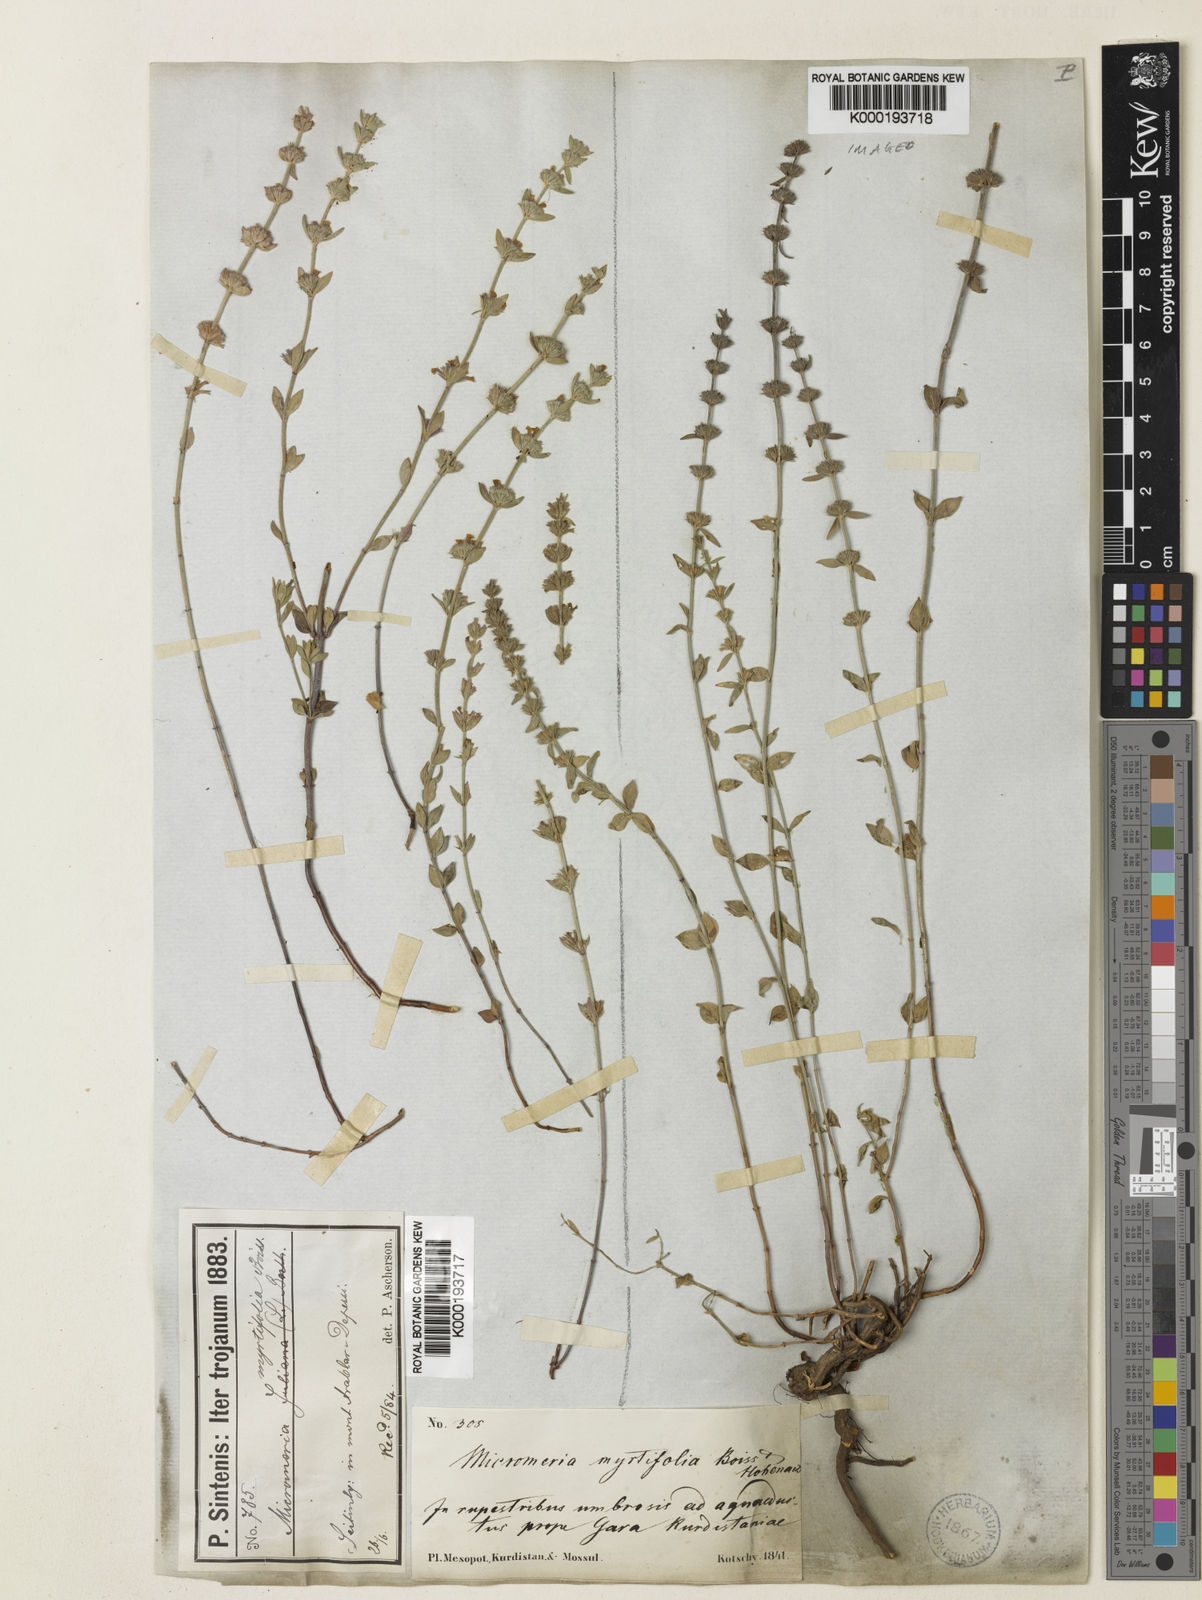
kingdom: Plantae
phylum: Tracheophyta
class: Magnoliopsida
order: Lamiales
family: Lamiaceae
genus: Micromeria
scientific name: Micromeria myrtifolia
